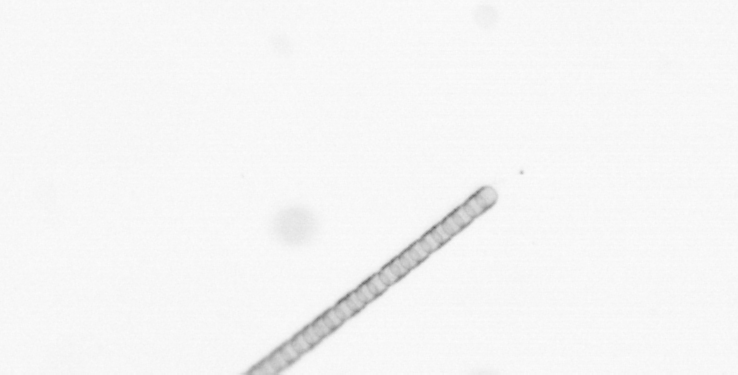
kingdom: Chromista
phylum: Ochrophyta
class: Bacillariophyceae
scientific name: Bacillariophyceae
